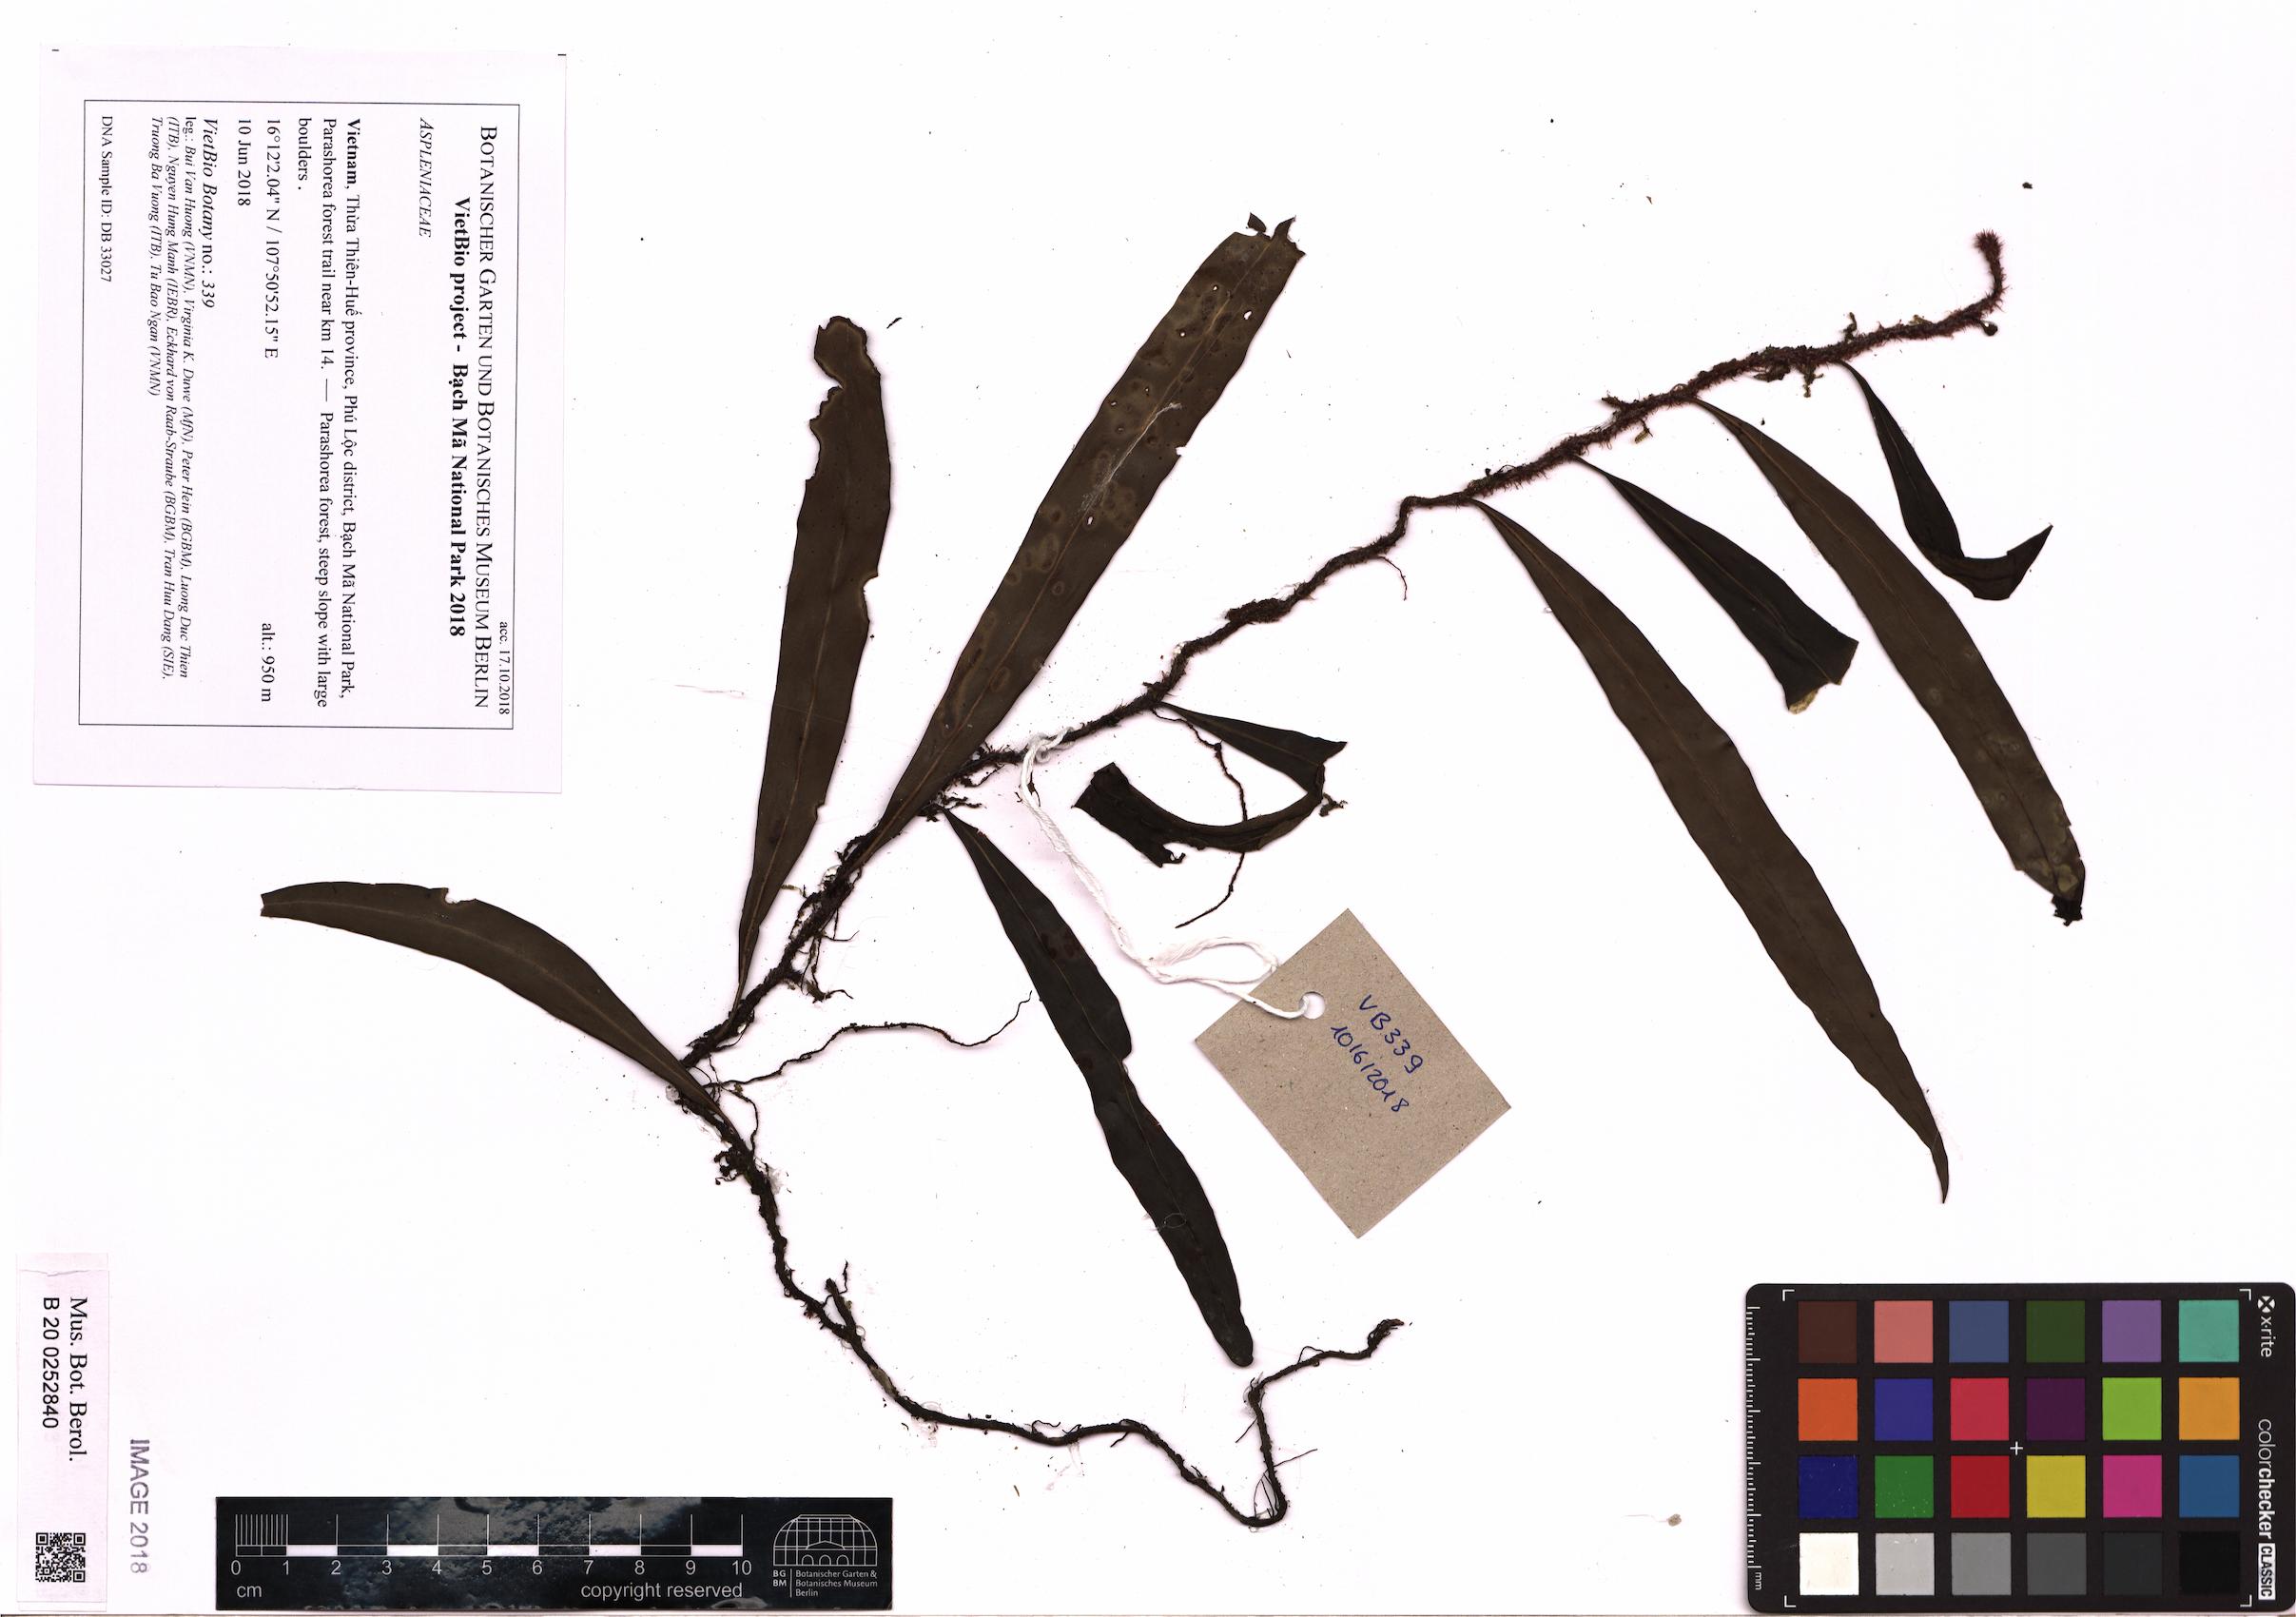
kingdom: Plantae
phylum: Tracheophyta
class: Polypodiopsida
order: Polypodiales
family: Polypodiaceae
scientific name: Polypodiaceae
